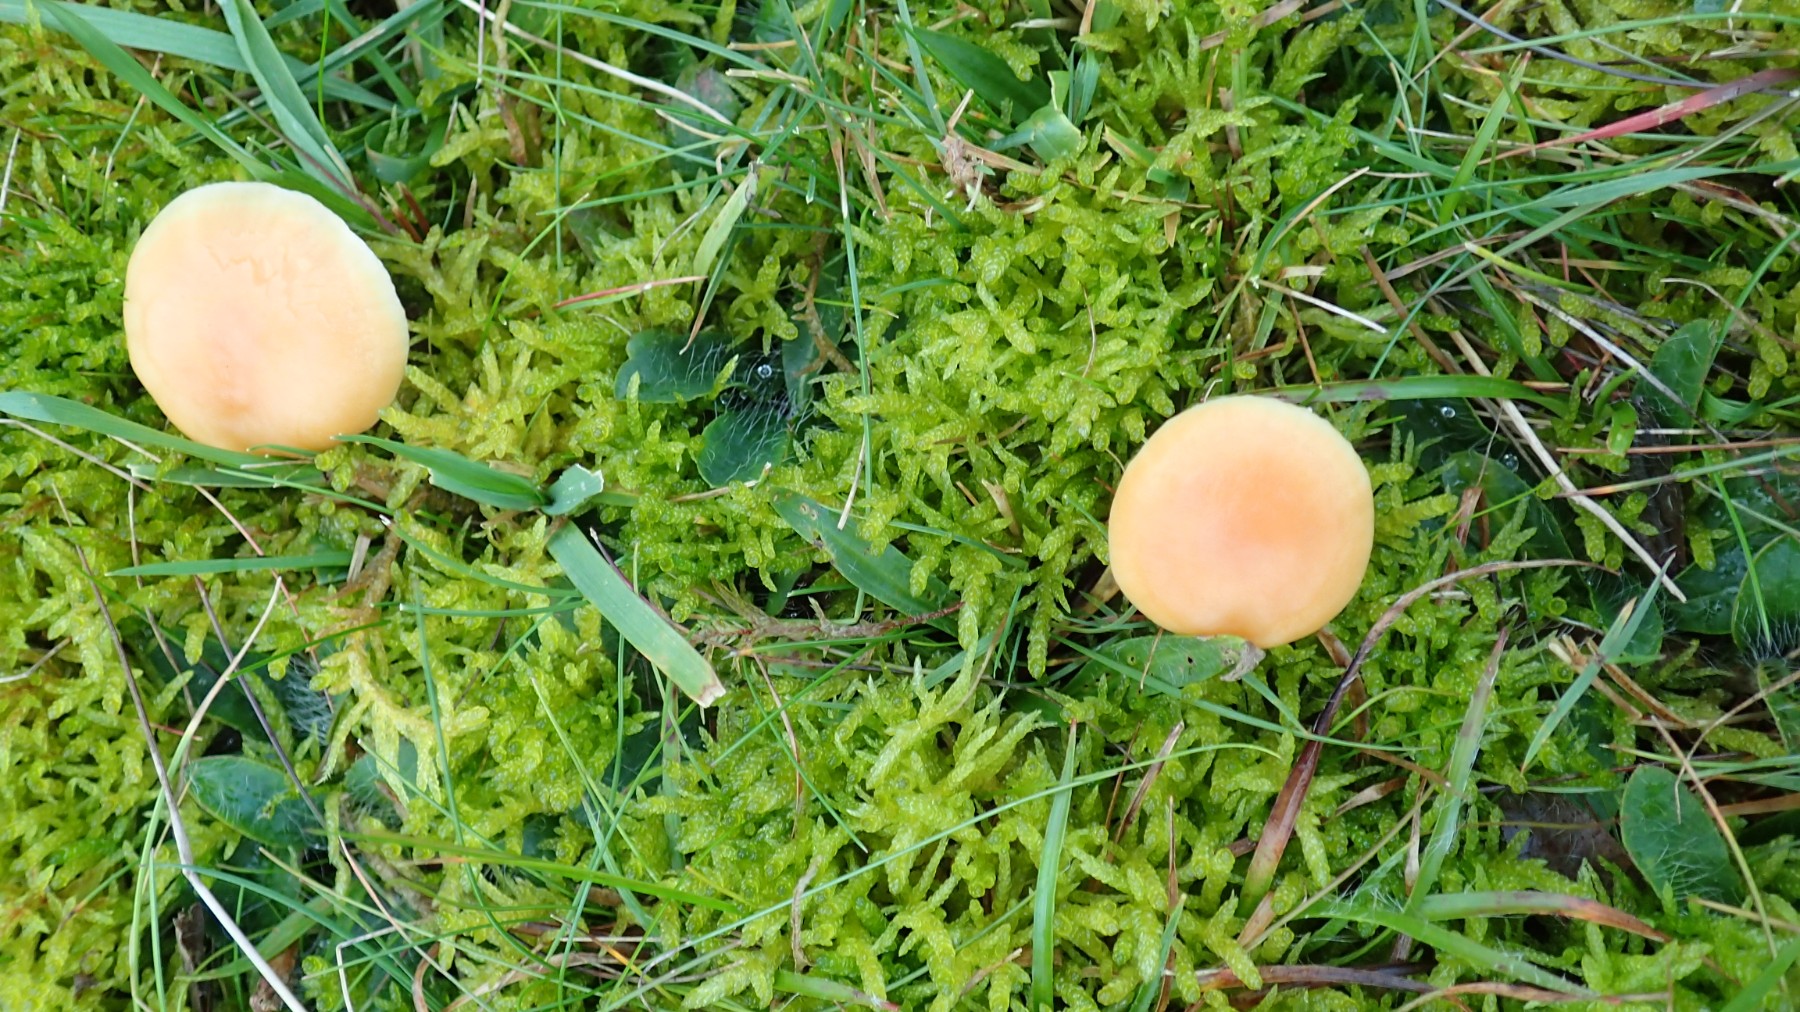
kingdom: Fungi
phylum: Basidiomycota
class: Agaricomycetes
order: Agaricales
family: Hygrophoraceae
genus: Cuphophyllus
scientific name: Cuphophyllus pratensis
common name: eng-vokshat
